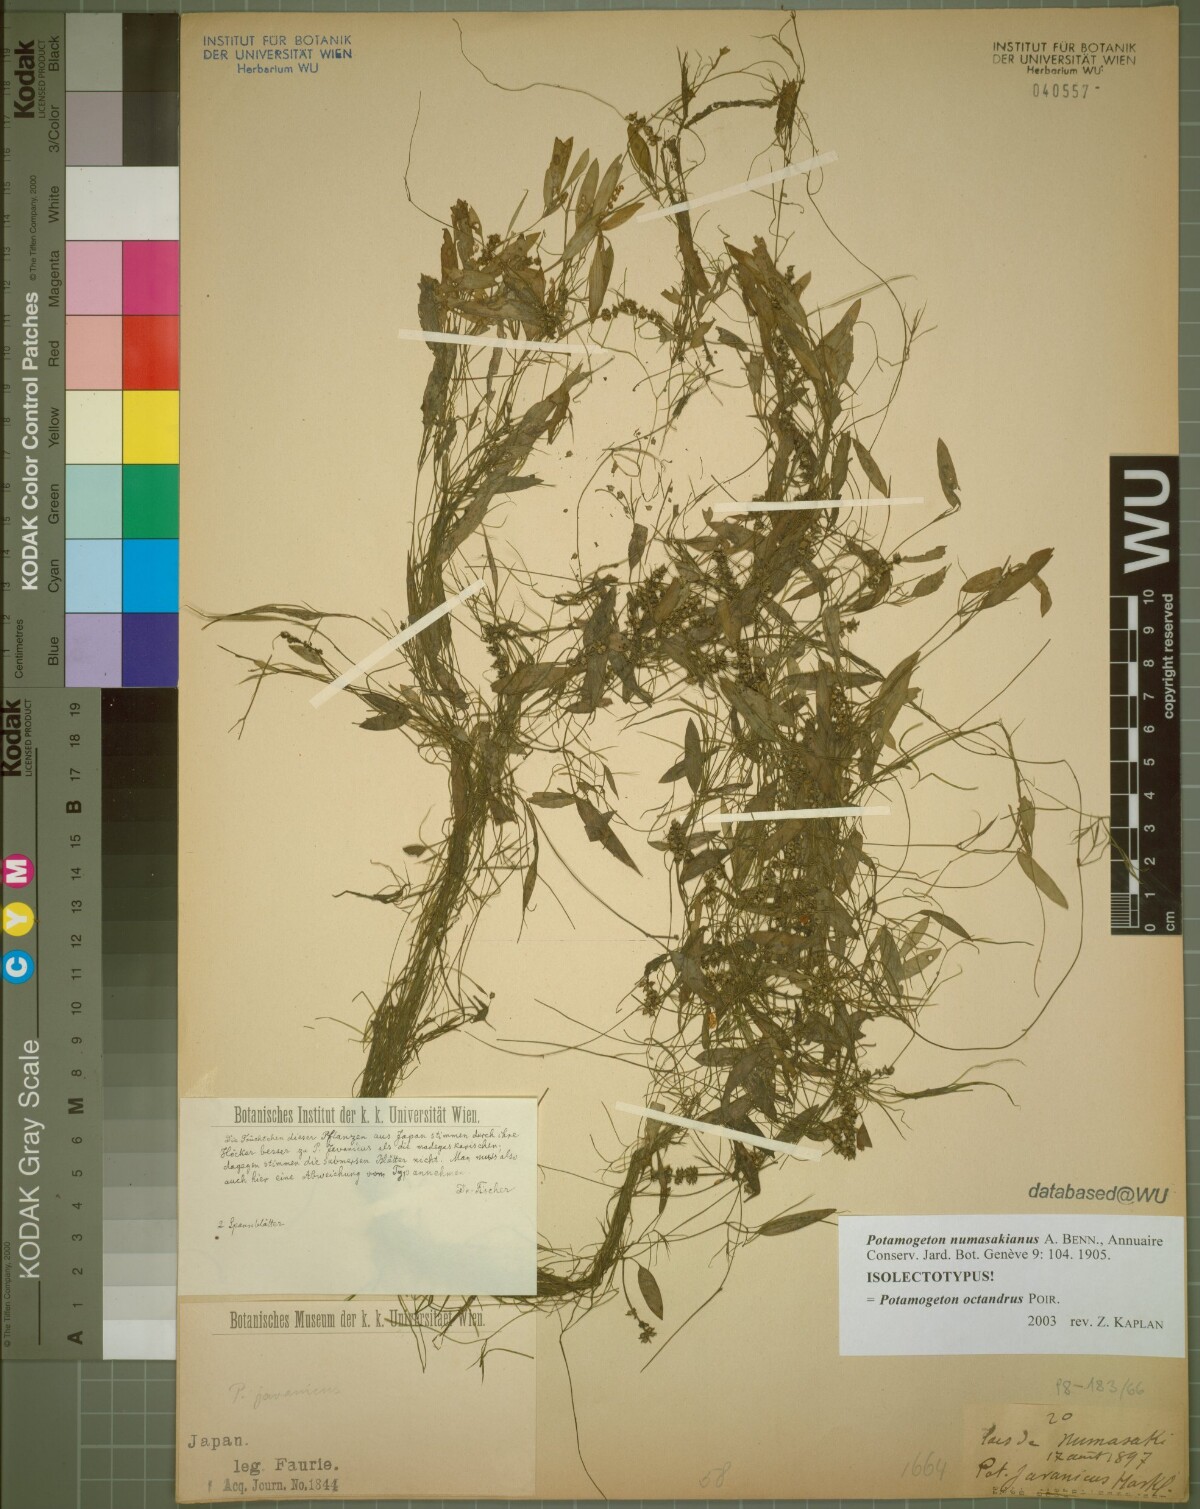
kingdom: Plantae
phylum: Tracheophyta
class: Liliopsida
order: Alismatales
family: Potamogetonaceae
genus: Potamogeton
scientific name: Potamogeton octandrus
